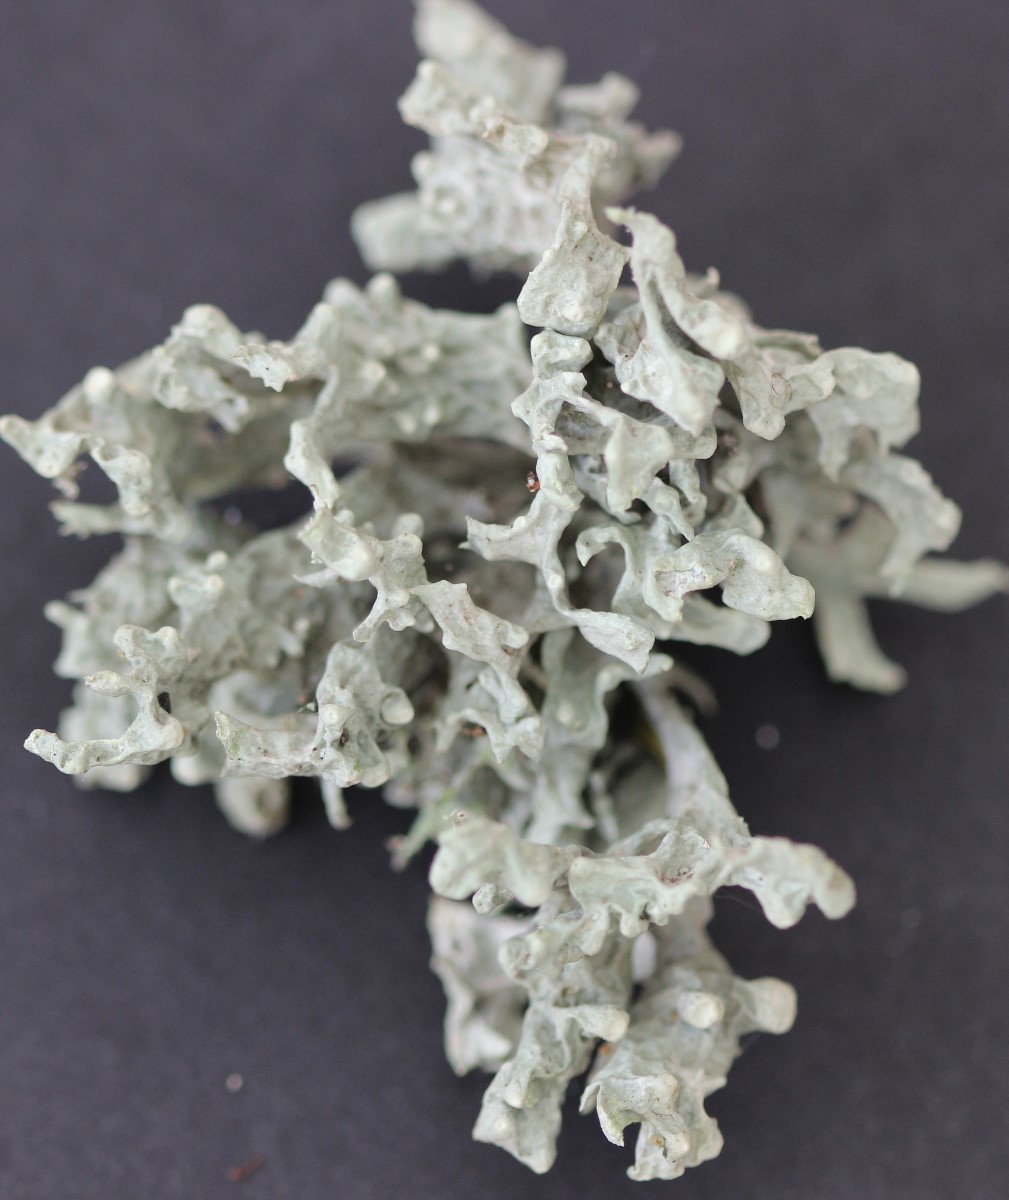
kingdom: Fungi
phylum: Ascomycota
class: Lecanoromycetes
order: Lecanorales
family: Ramalinaceae
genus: Ramalina
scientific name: Ramalina fastigiata
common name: tue-grenlav
